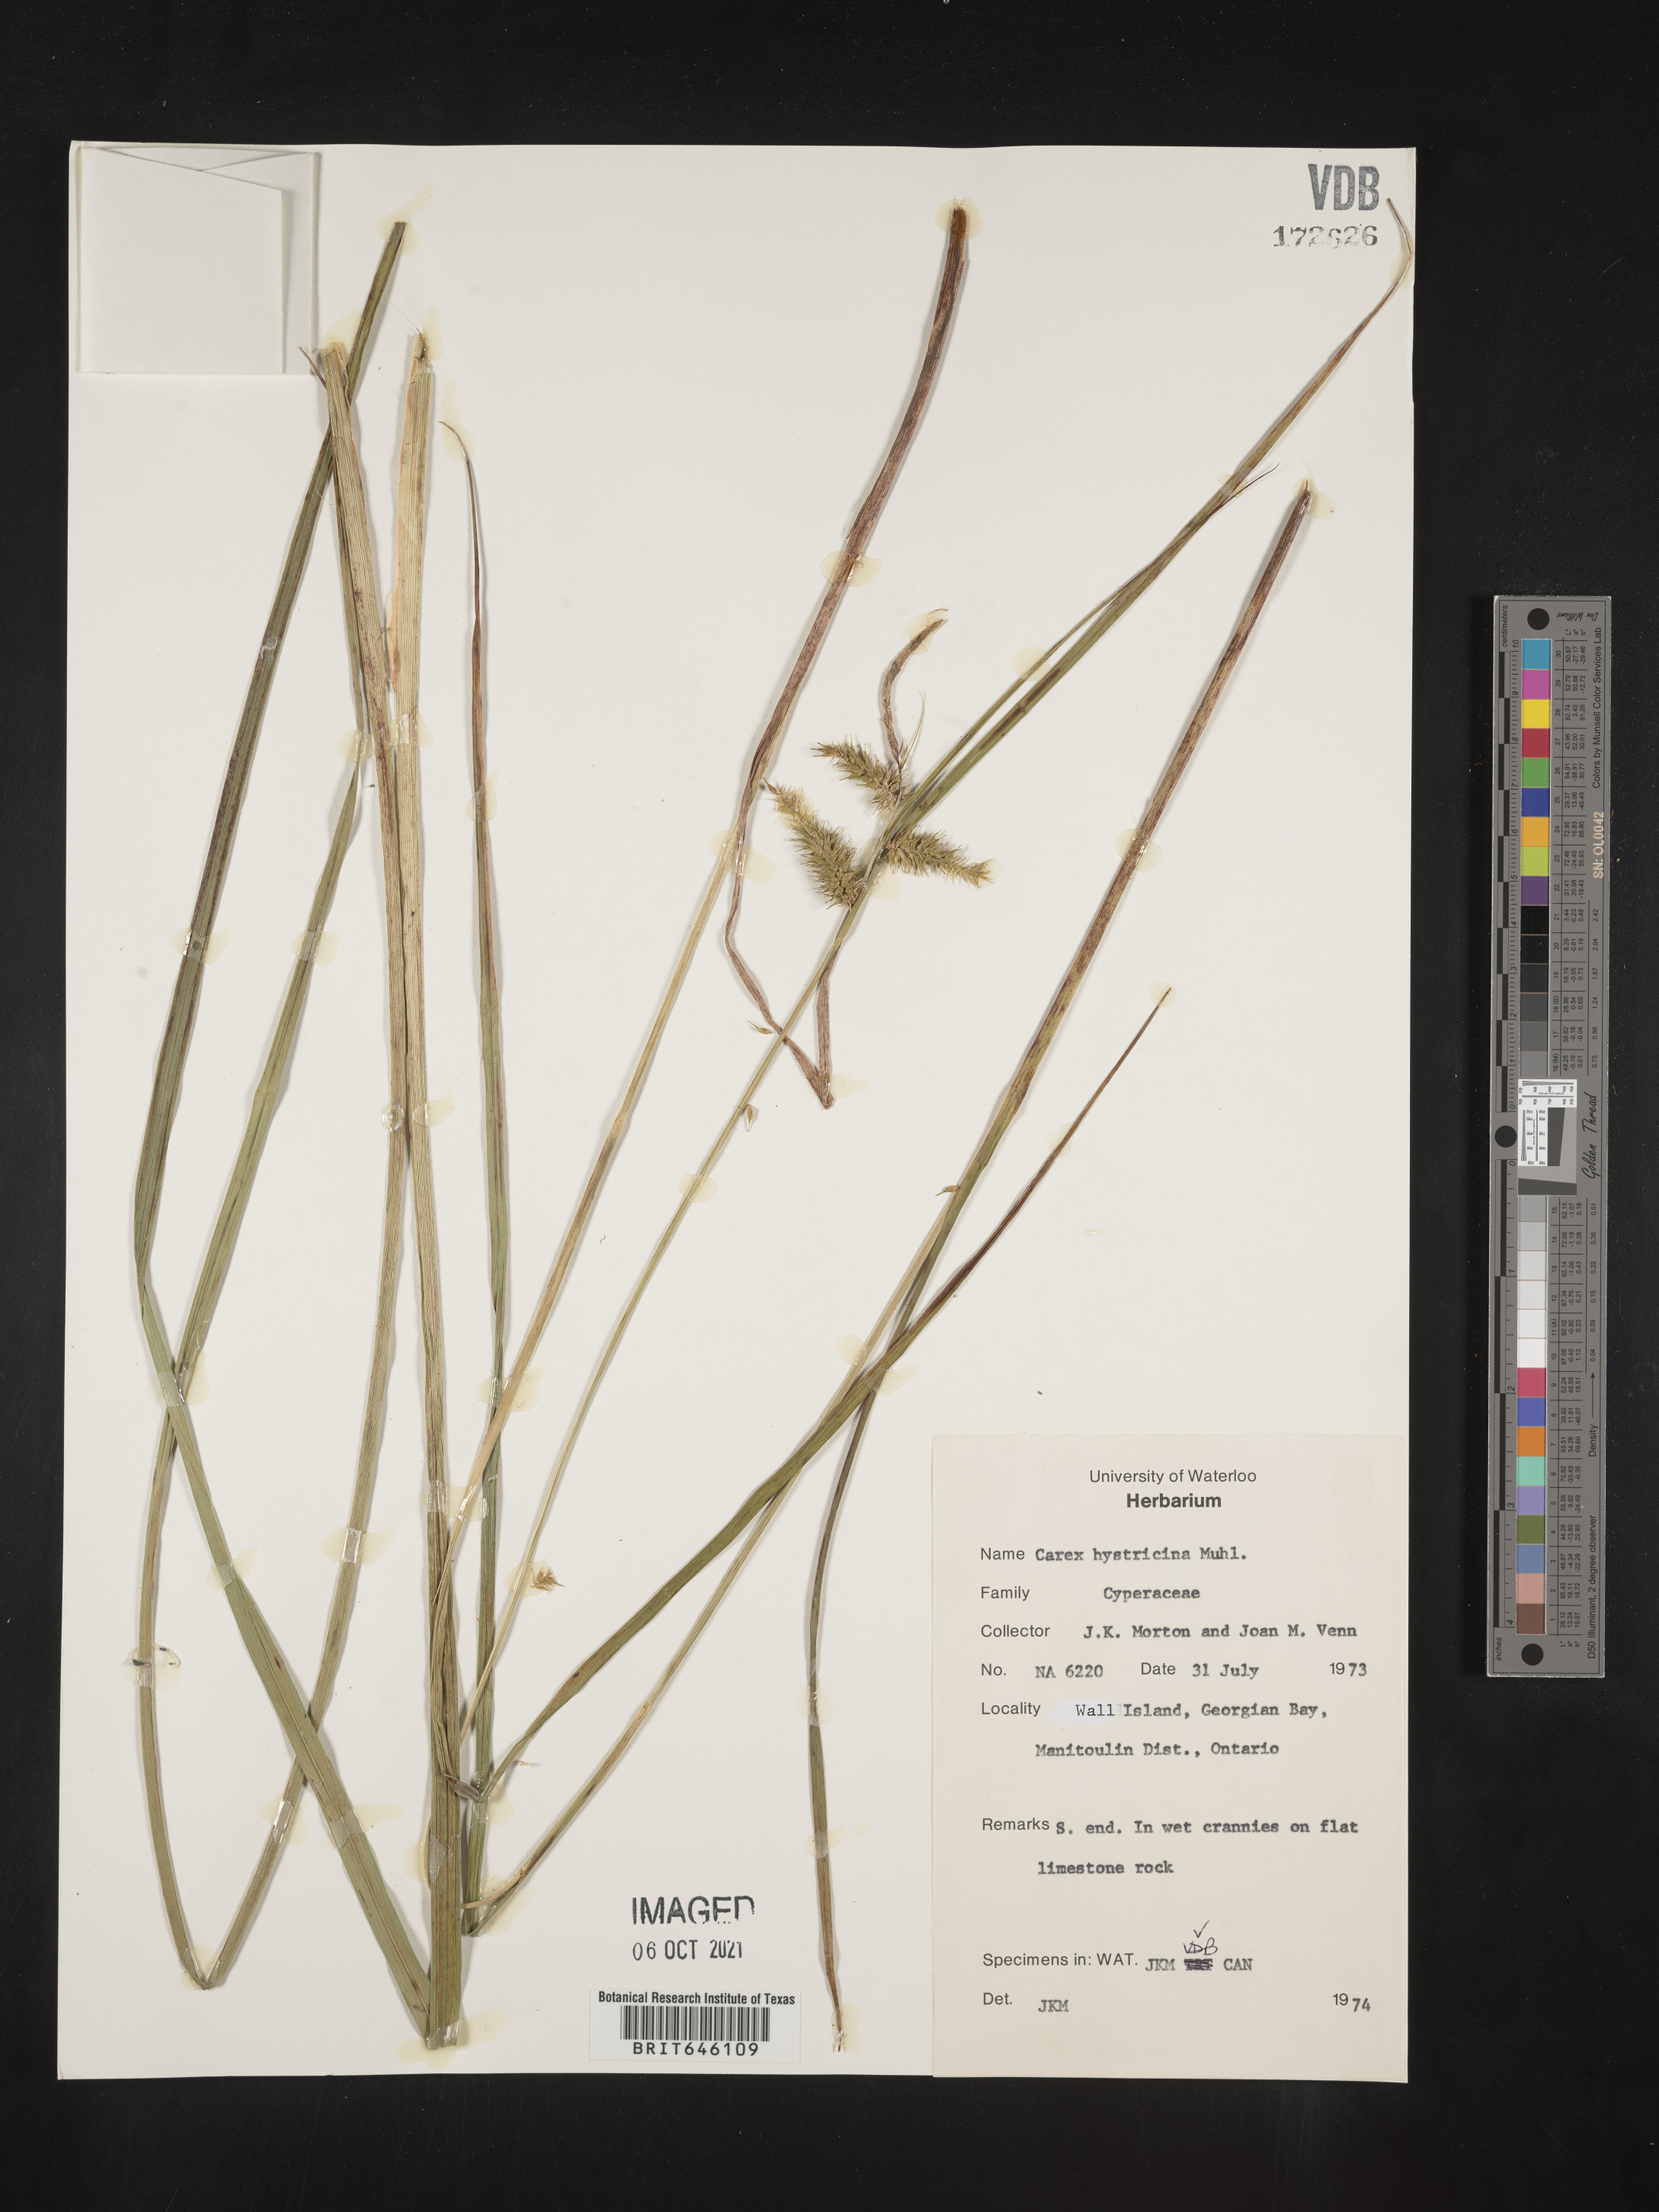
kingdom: Plantae
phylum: Tracheophyta
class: Liliopsida
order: Poales
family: Cyperaceae
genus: Carex
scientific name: Carex hystericina
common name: Bottlebrush sedge
